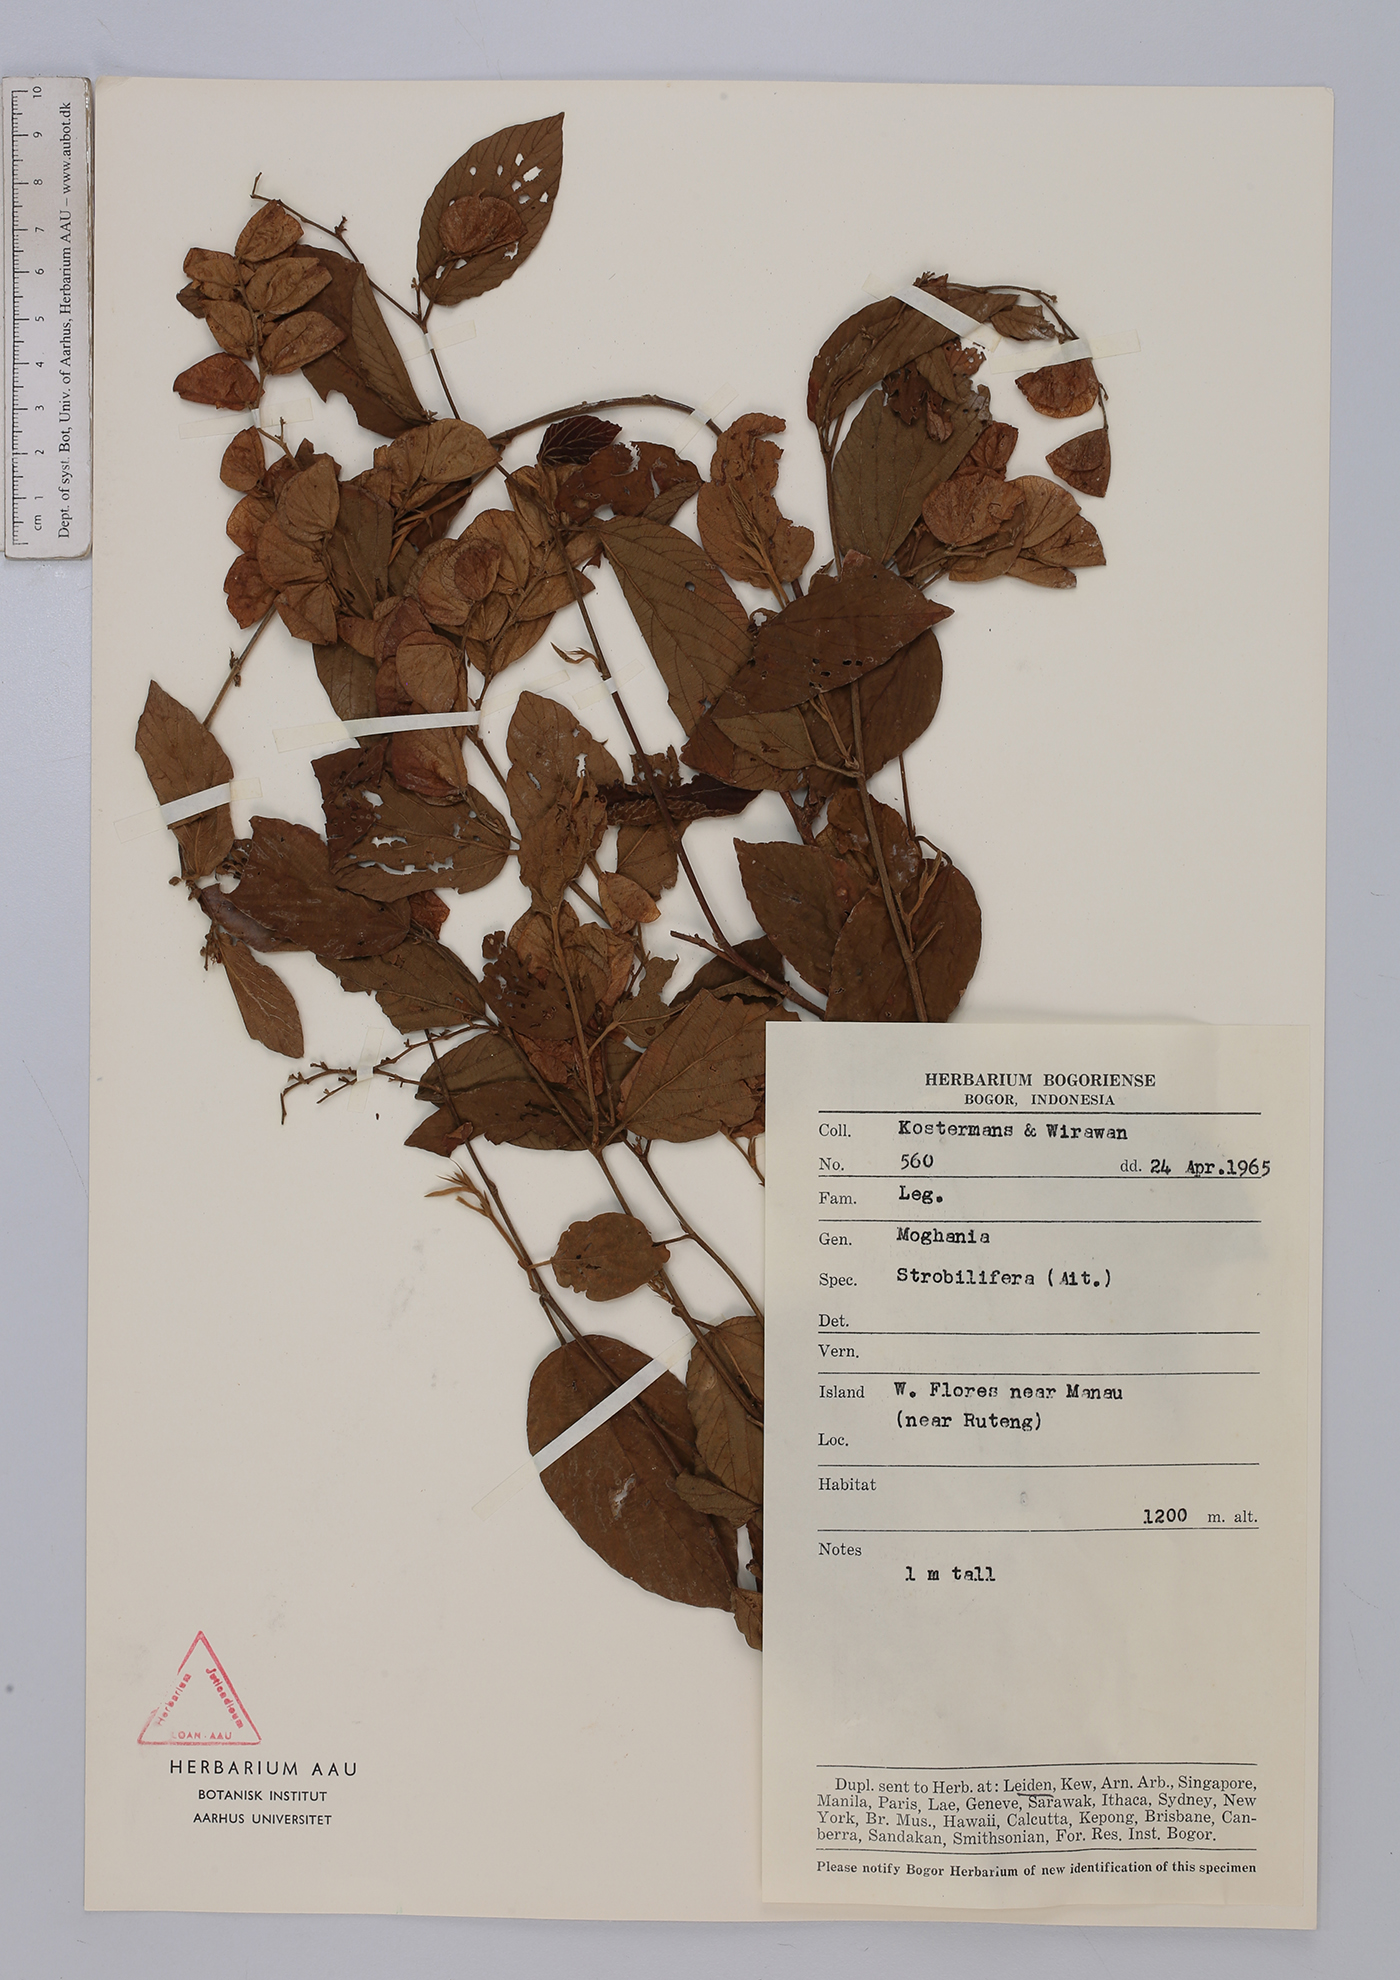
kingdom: Plantae
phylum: Tracheophyta
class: Magnoliopsida
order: Fabales
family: Fabaceae
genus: Flemingia
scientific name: Flemingia strobilifera
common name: Wild hops
